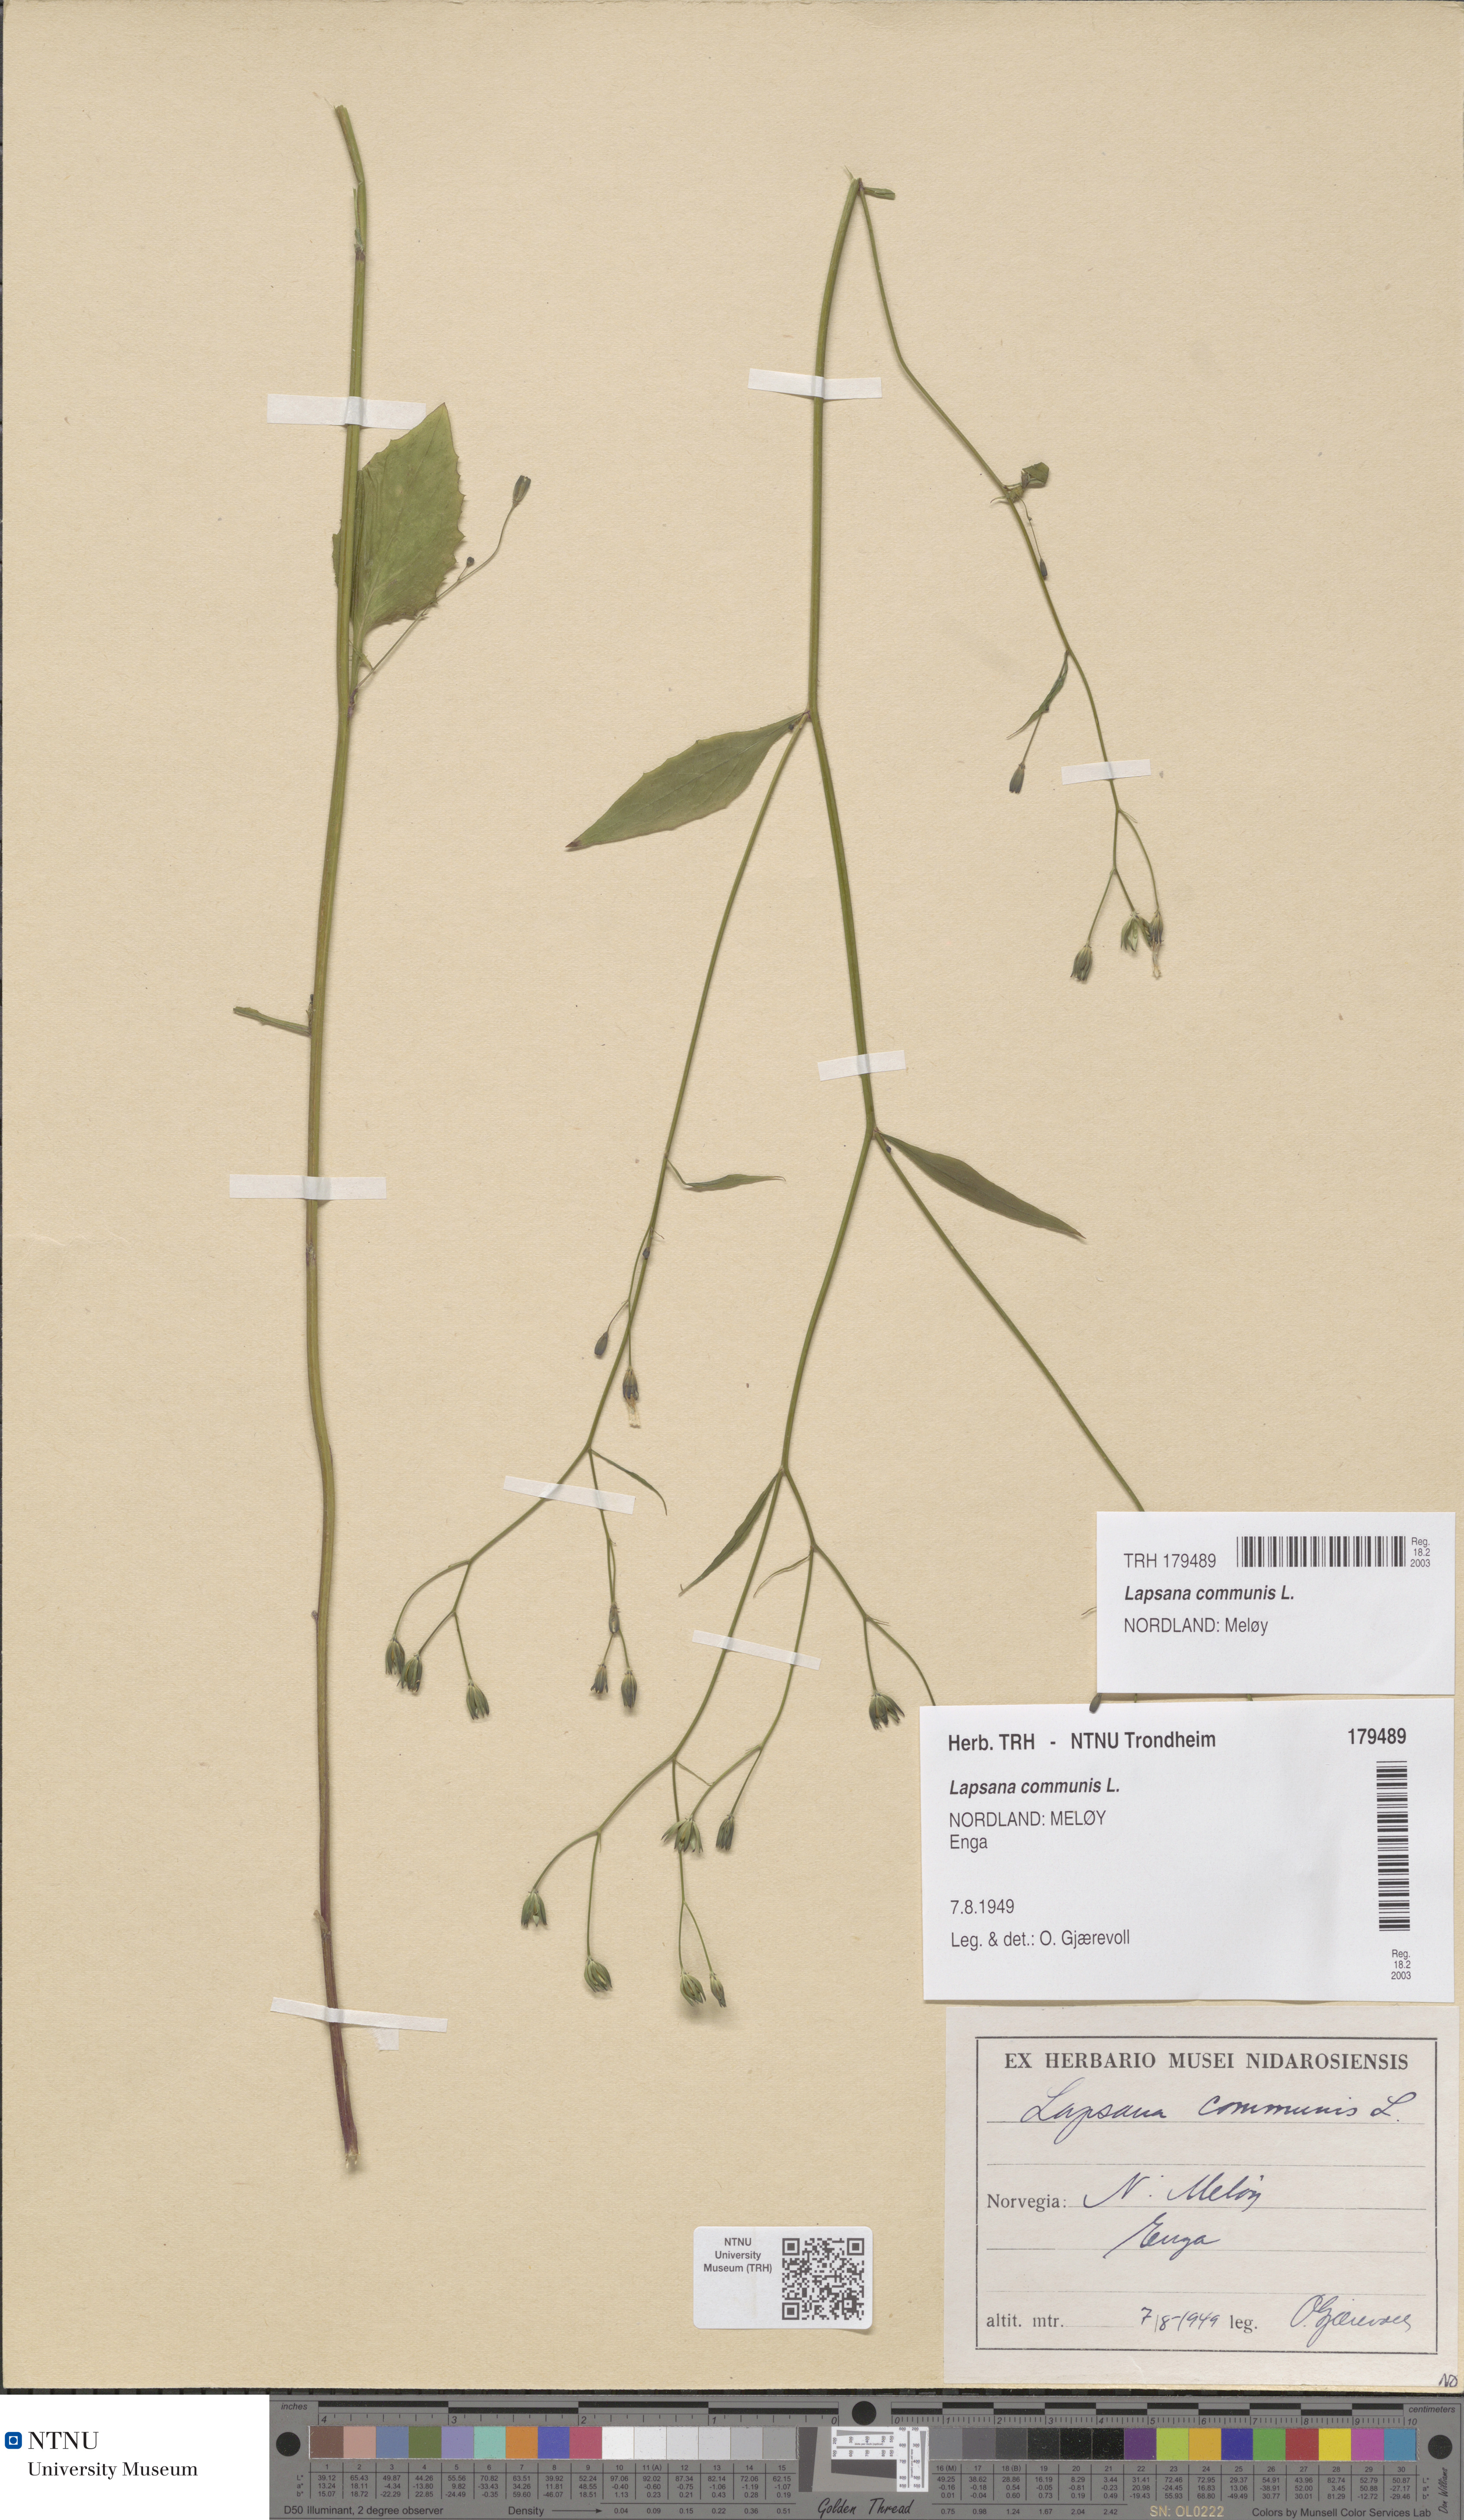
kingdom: Plantae
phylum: Tracheophyta
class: Magnoliopsida
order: Asterales
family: Asteraceae
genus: Lapsana
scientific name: Lapsana communis
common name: Nipplewort
